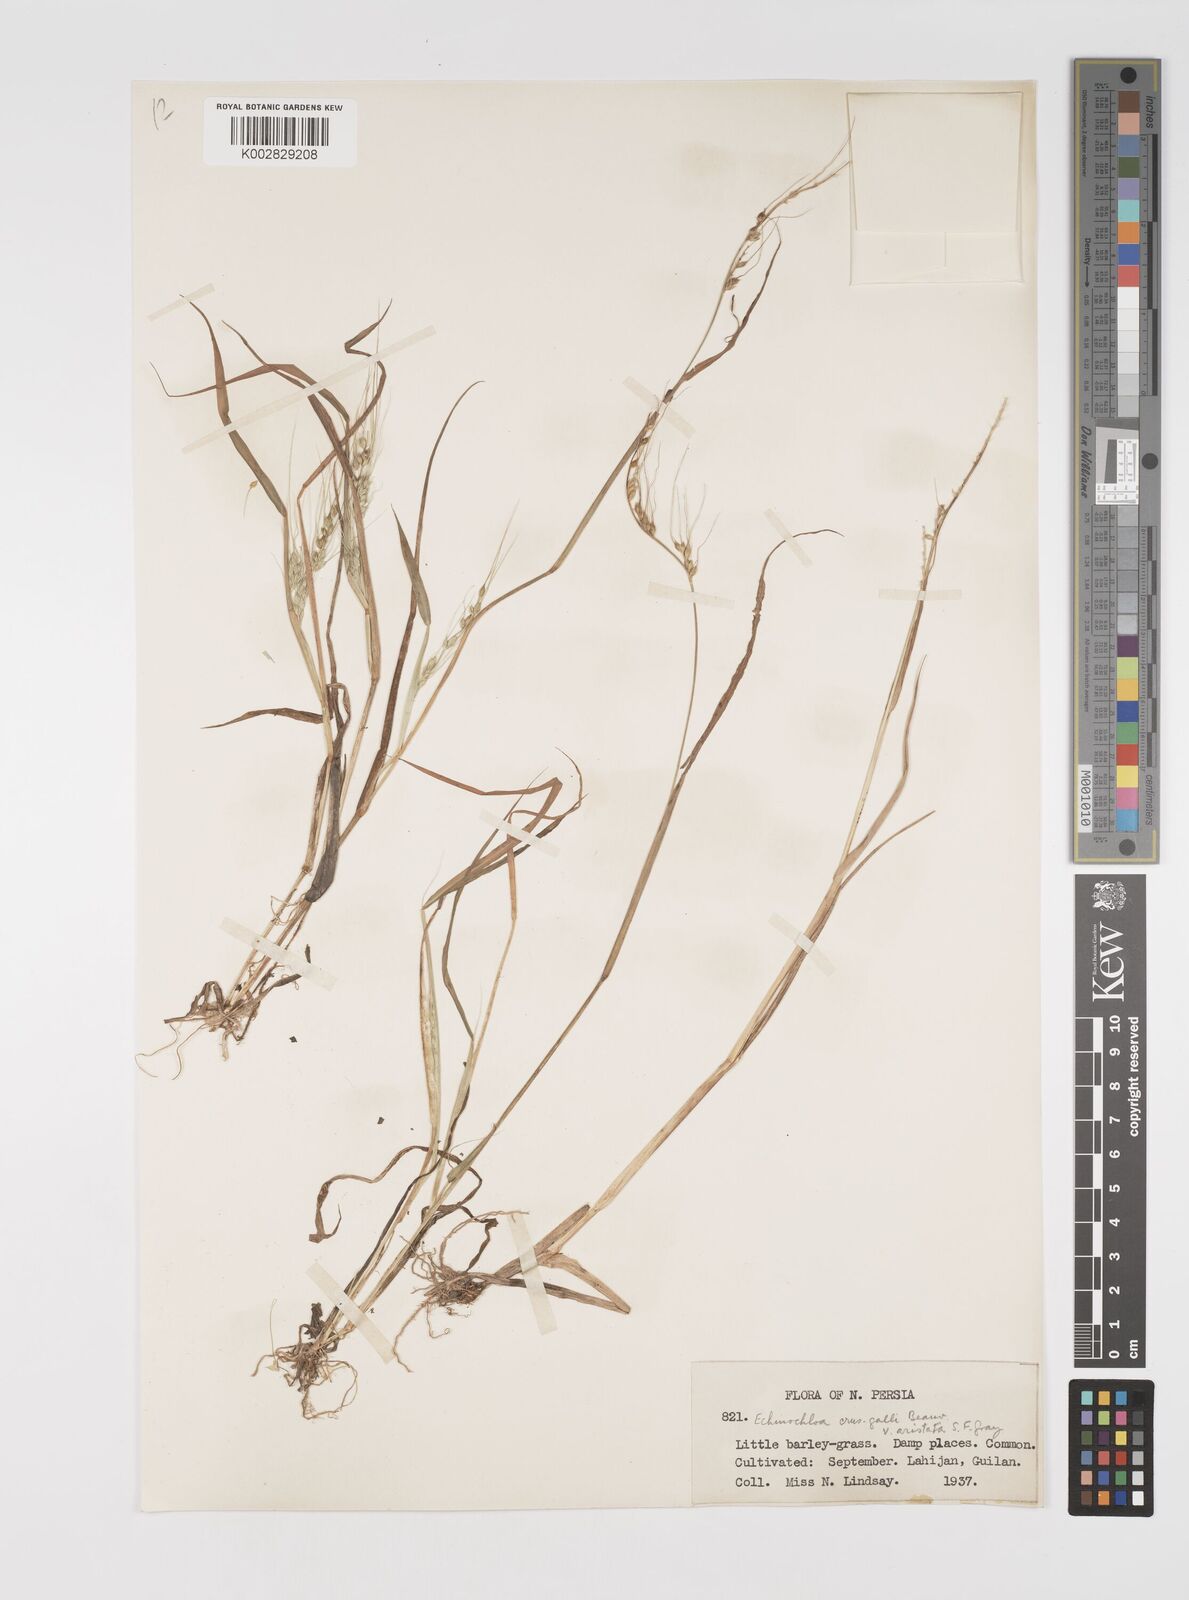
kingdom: Plantae
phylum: Tracheophyta
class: Liliopsida
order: Poales
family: Poaceae
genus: Echinochloa
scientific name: Echinochloa crus-galli
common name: Cockspur
